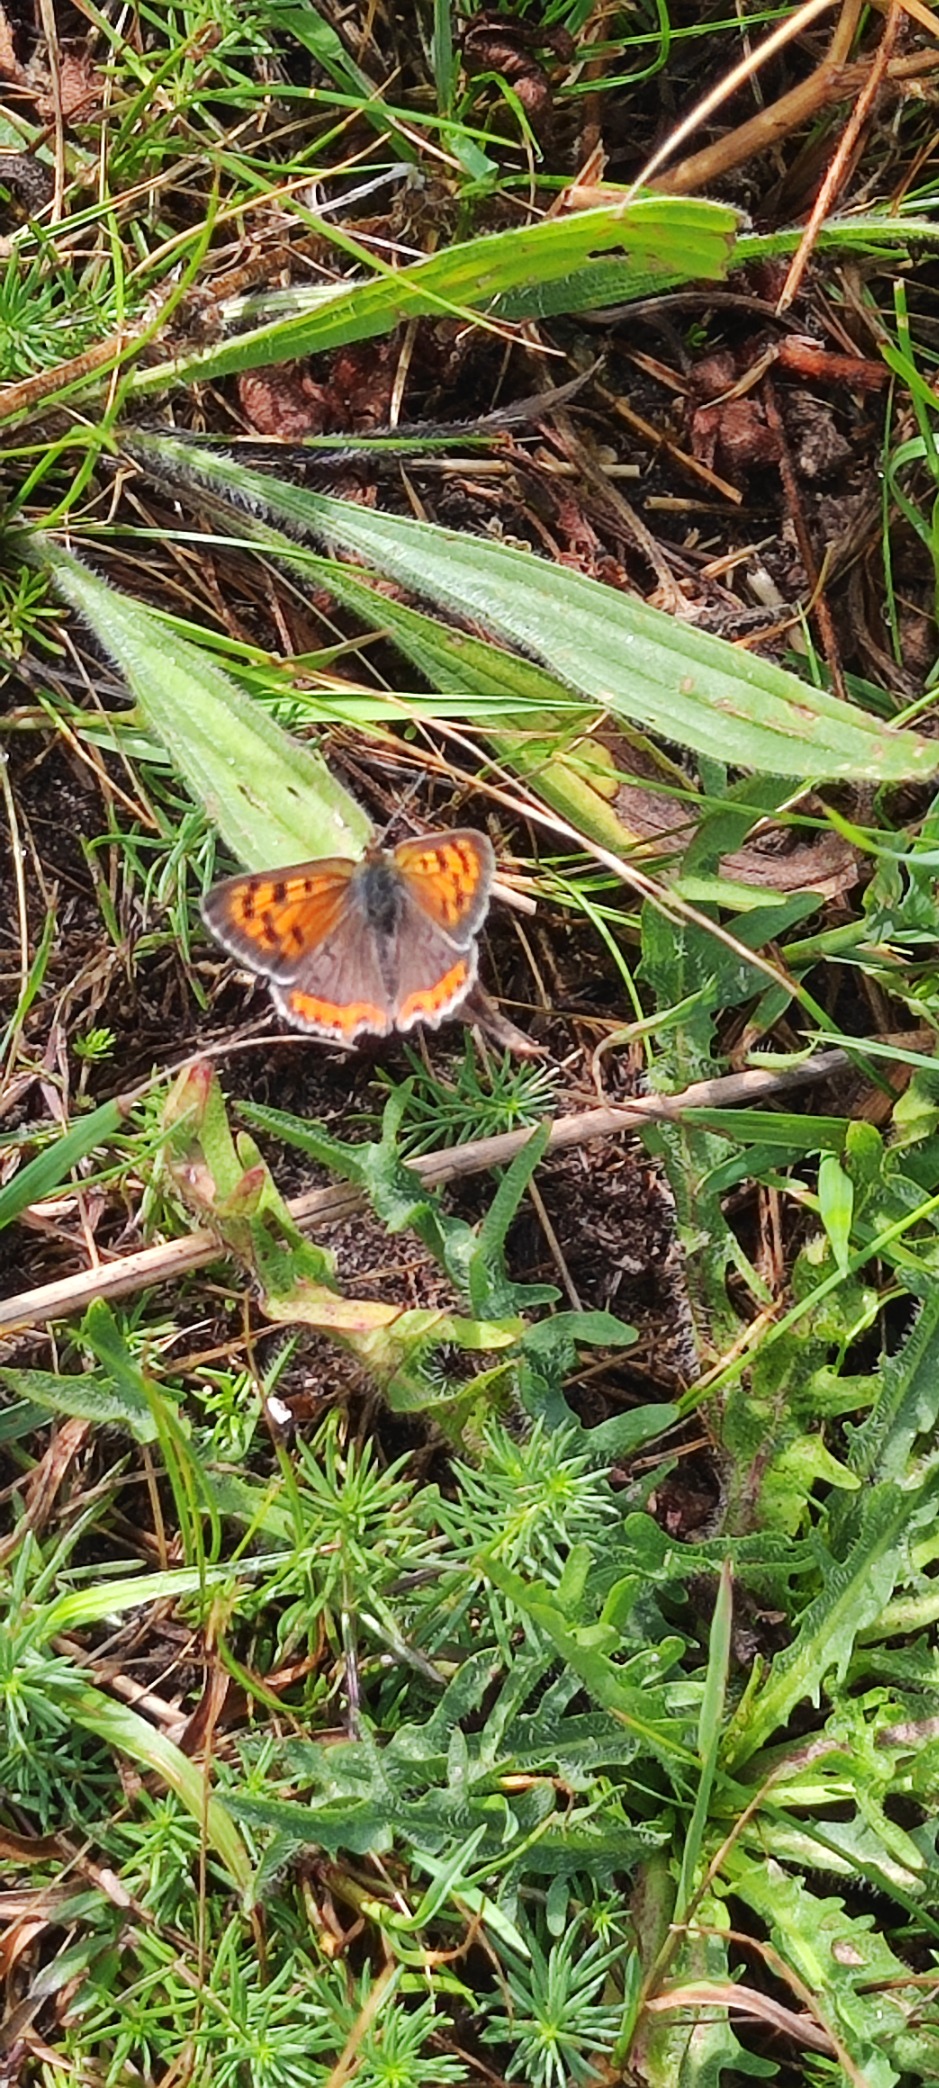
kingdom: Animalia
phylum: Arthropoda
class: Insecta
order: Lepidoptera
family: Lycaenidae
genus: Lycaena
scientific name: Lycaena phlaeas
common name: Lille ildfugl
